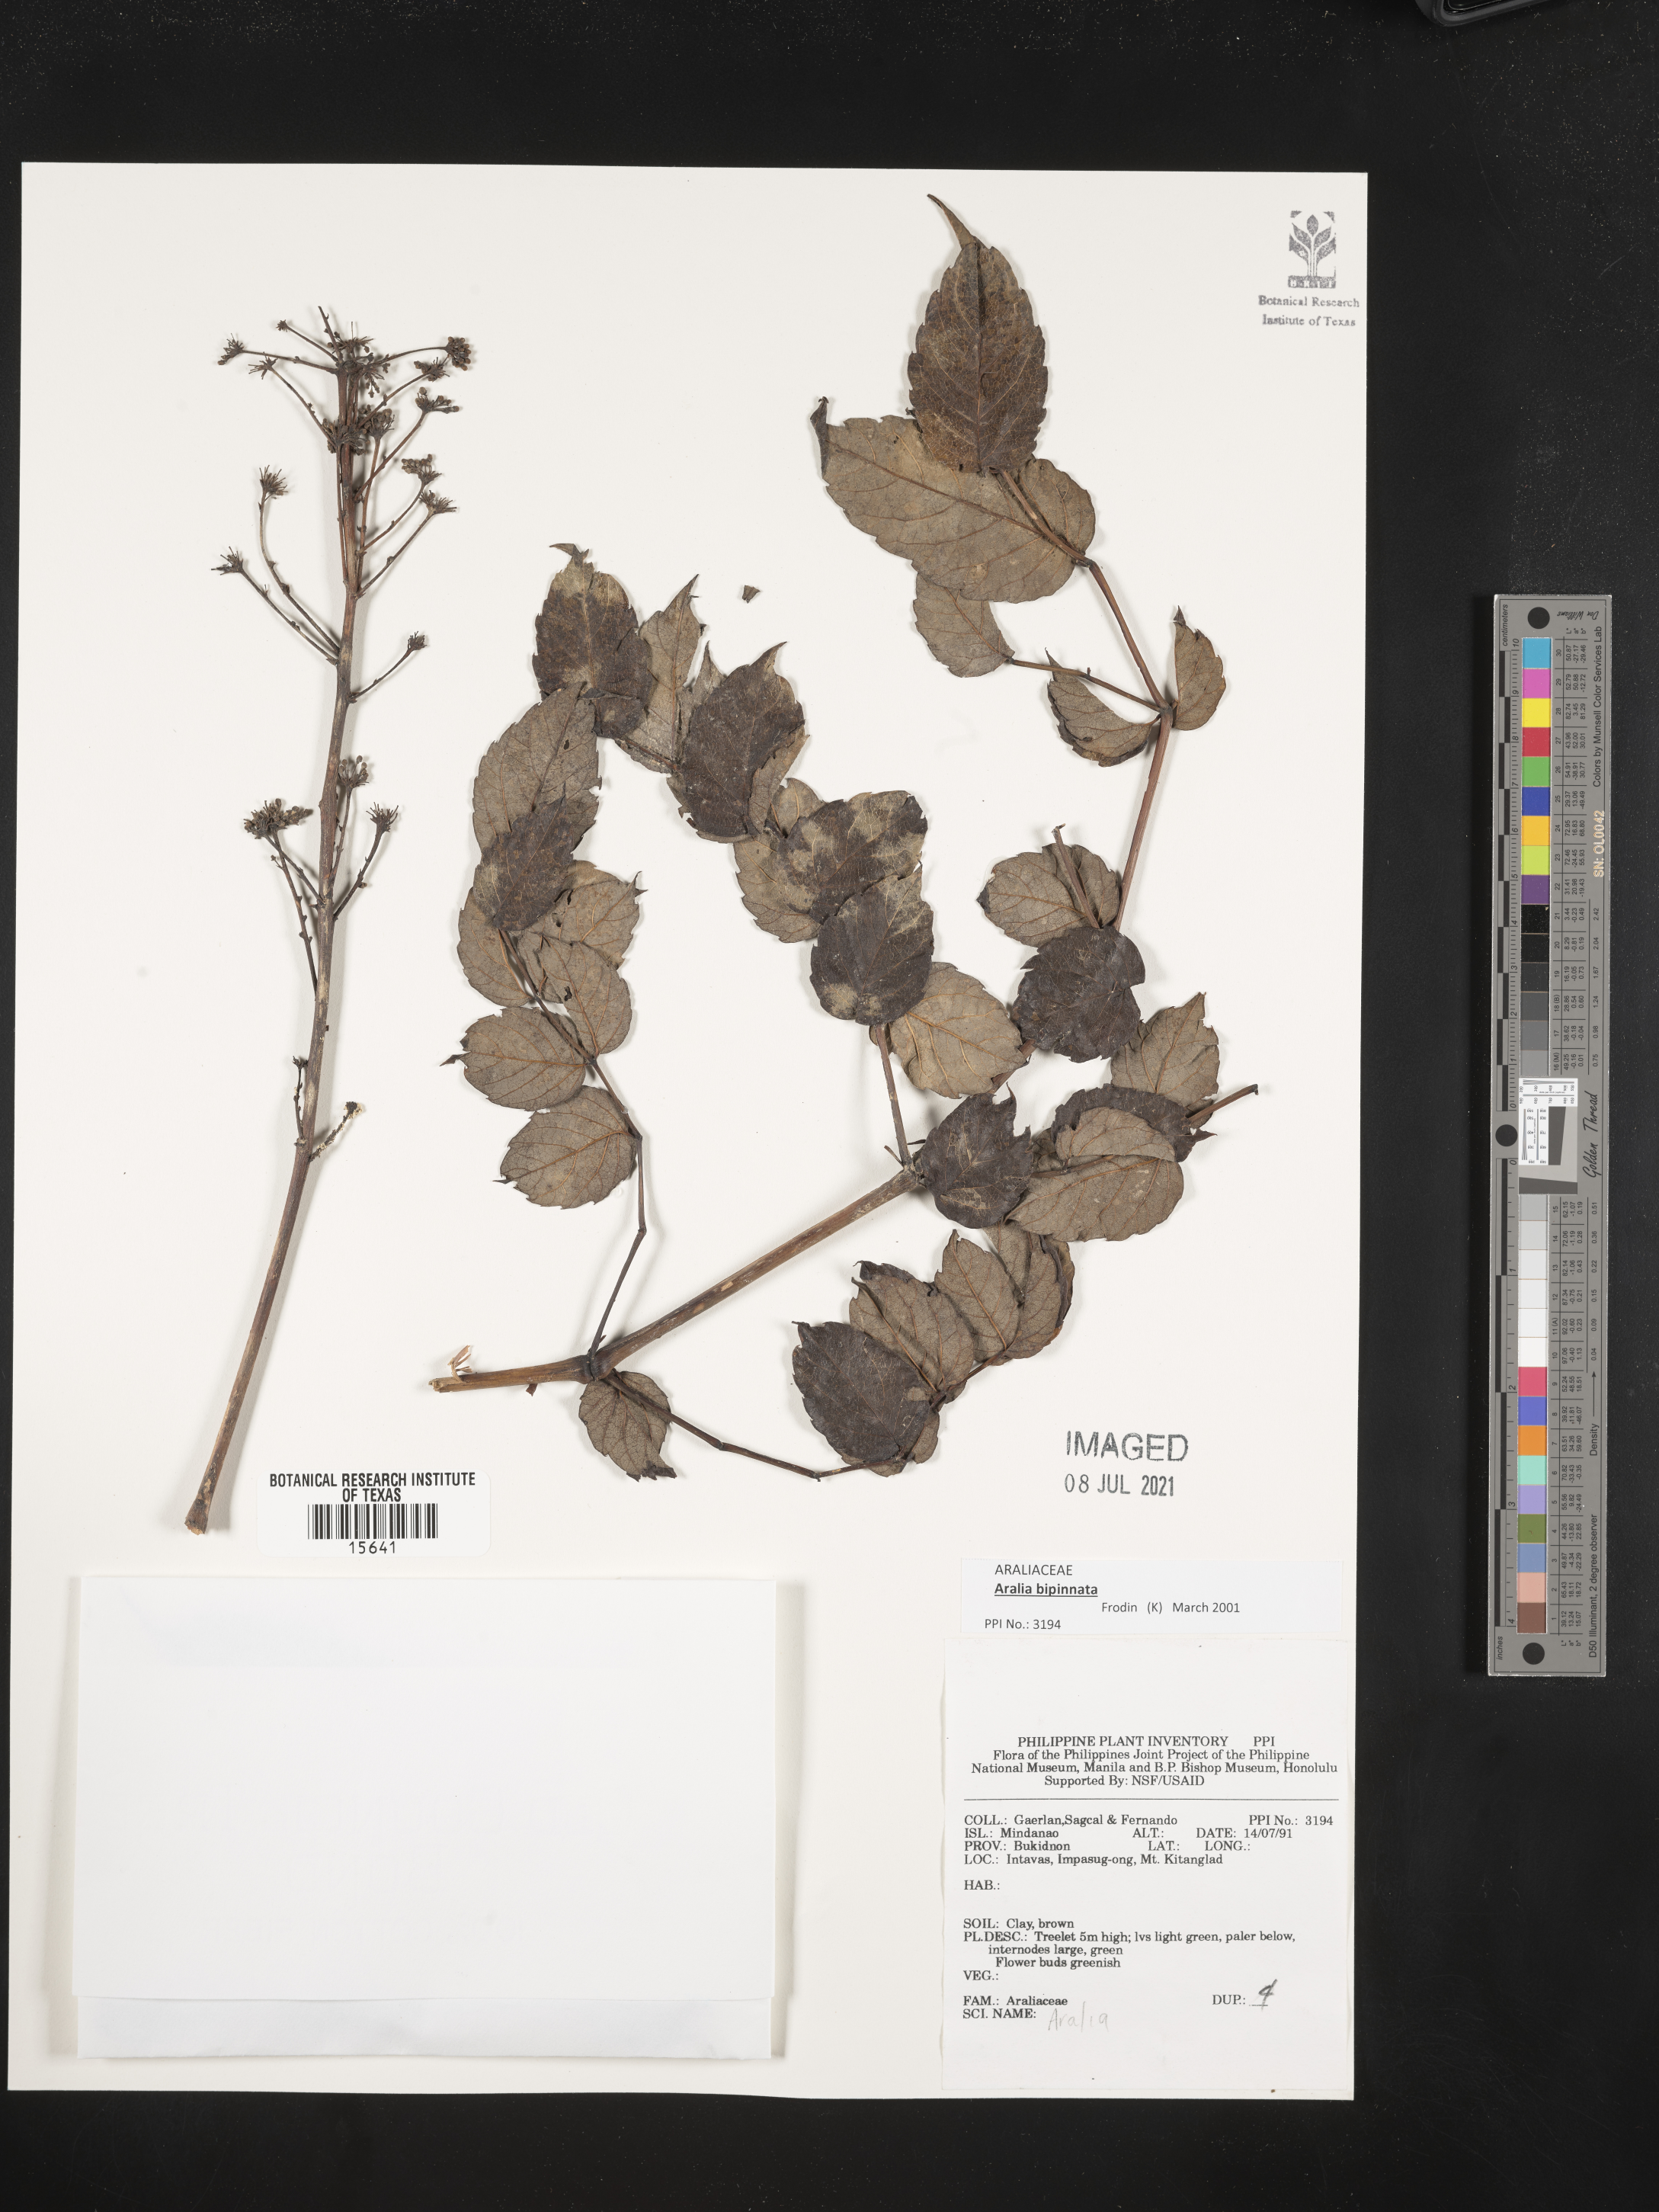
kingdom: Plantae
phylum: Tracheophyta
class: Magnoliopsida
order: Apiales
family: Araliaceae
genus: Aralia
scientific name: Aralia
